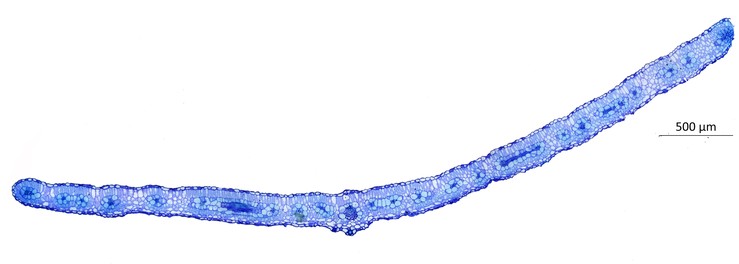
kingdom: Plantae
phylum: Tracheophyta
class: Magnoliopsida
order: Zygophyllales
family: Zygophyllaceae
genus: Kallstroemia
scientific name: Kallstroemia parviflora
